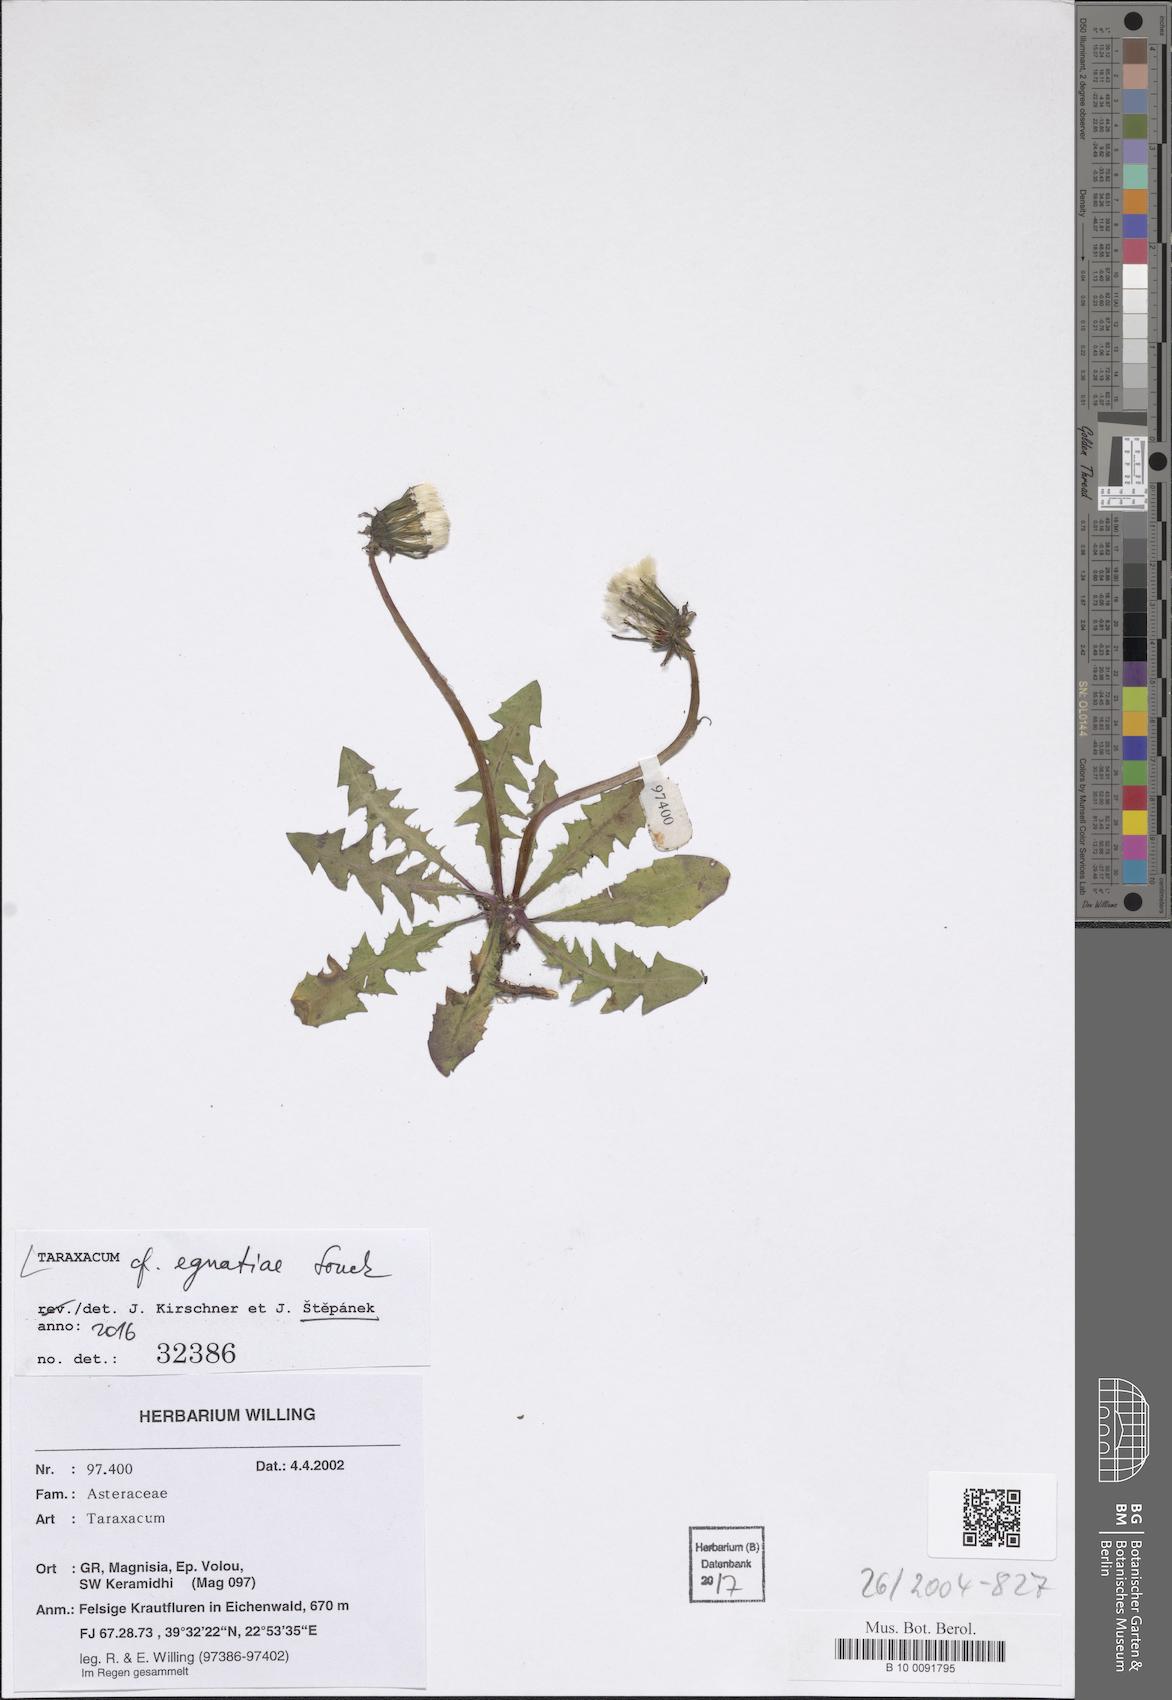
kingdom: Plantae
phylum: Tracheophyta
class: Magnoliopsida
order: Asterales
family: Asteraceae
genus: Taraxacum
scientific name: Taraxacum egnatiae
